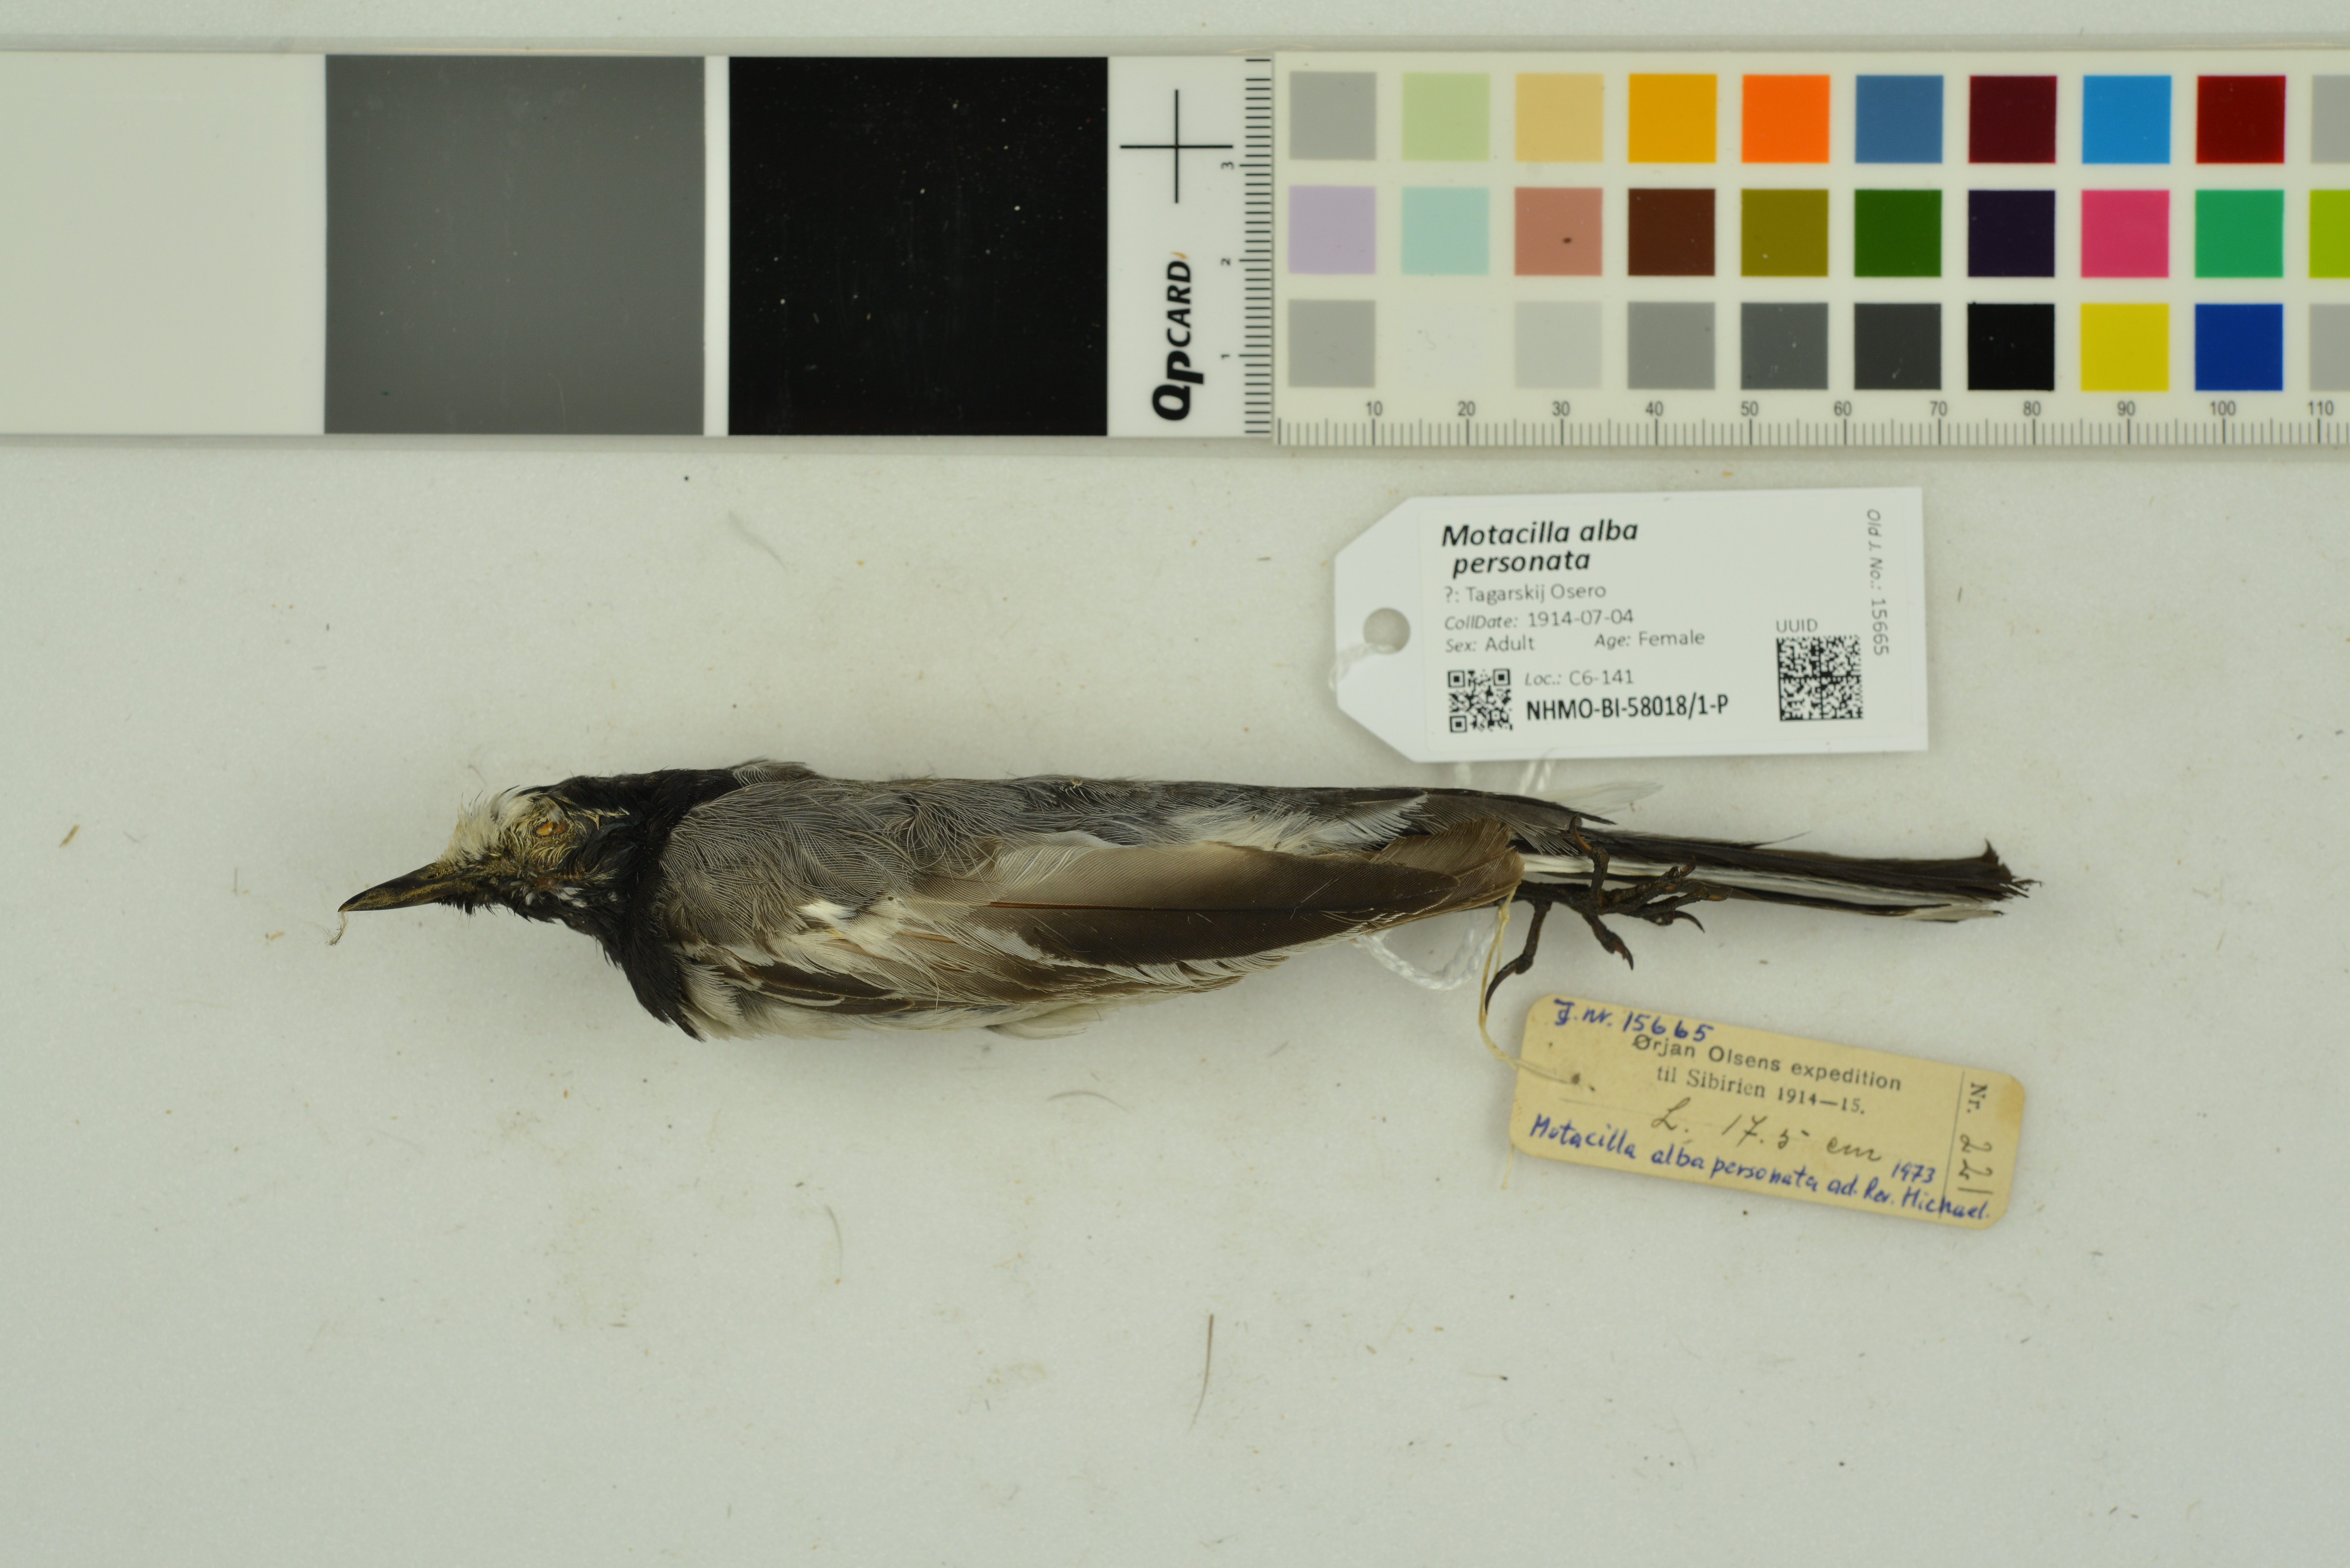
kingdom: Animalia
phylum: Chordata
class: Aves
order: Passeriformes
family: Motacillidae
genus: Motacilla
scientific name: Motacilla alba
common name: White wagtail
